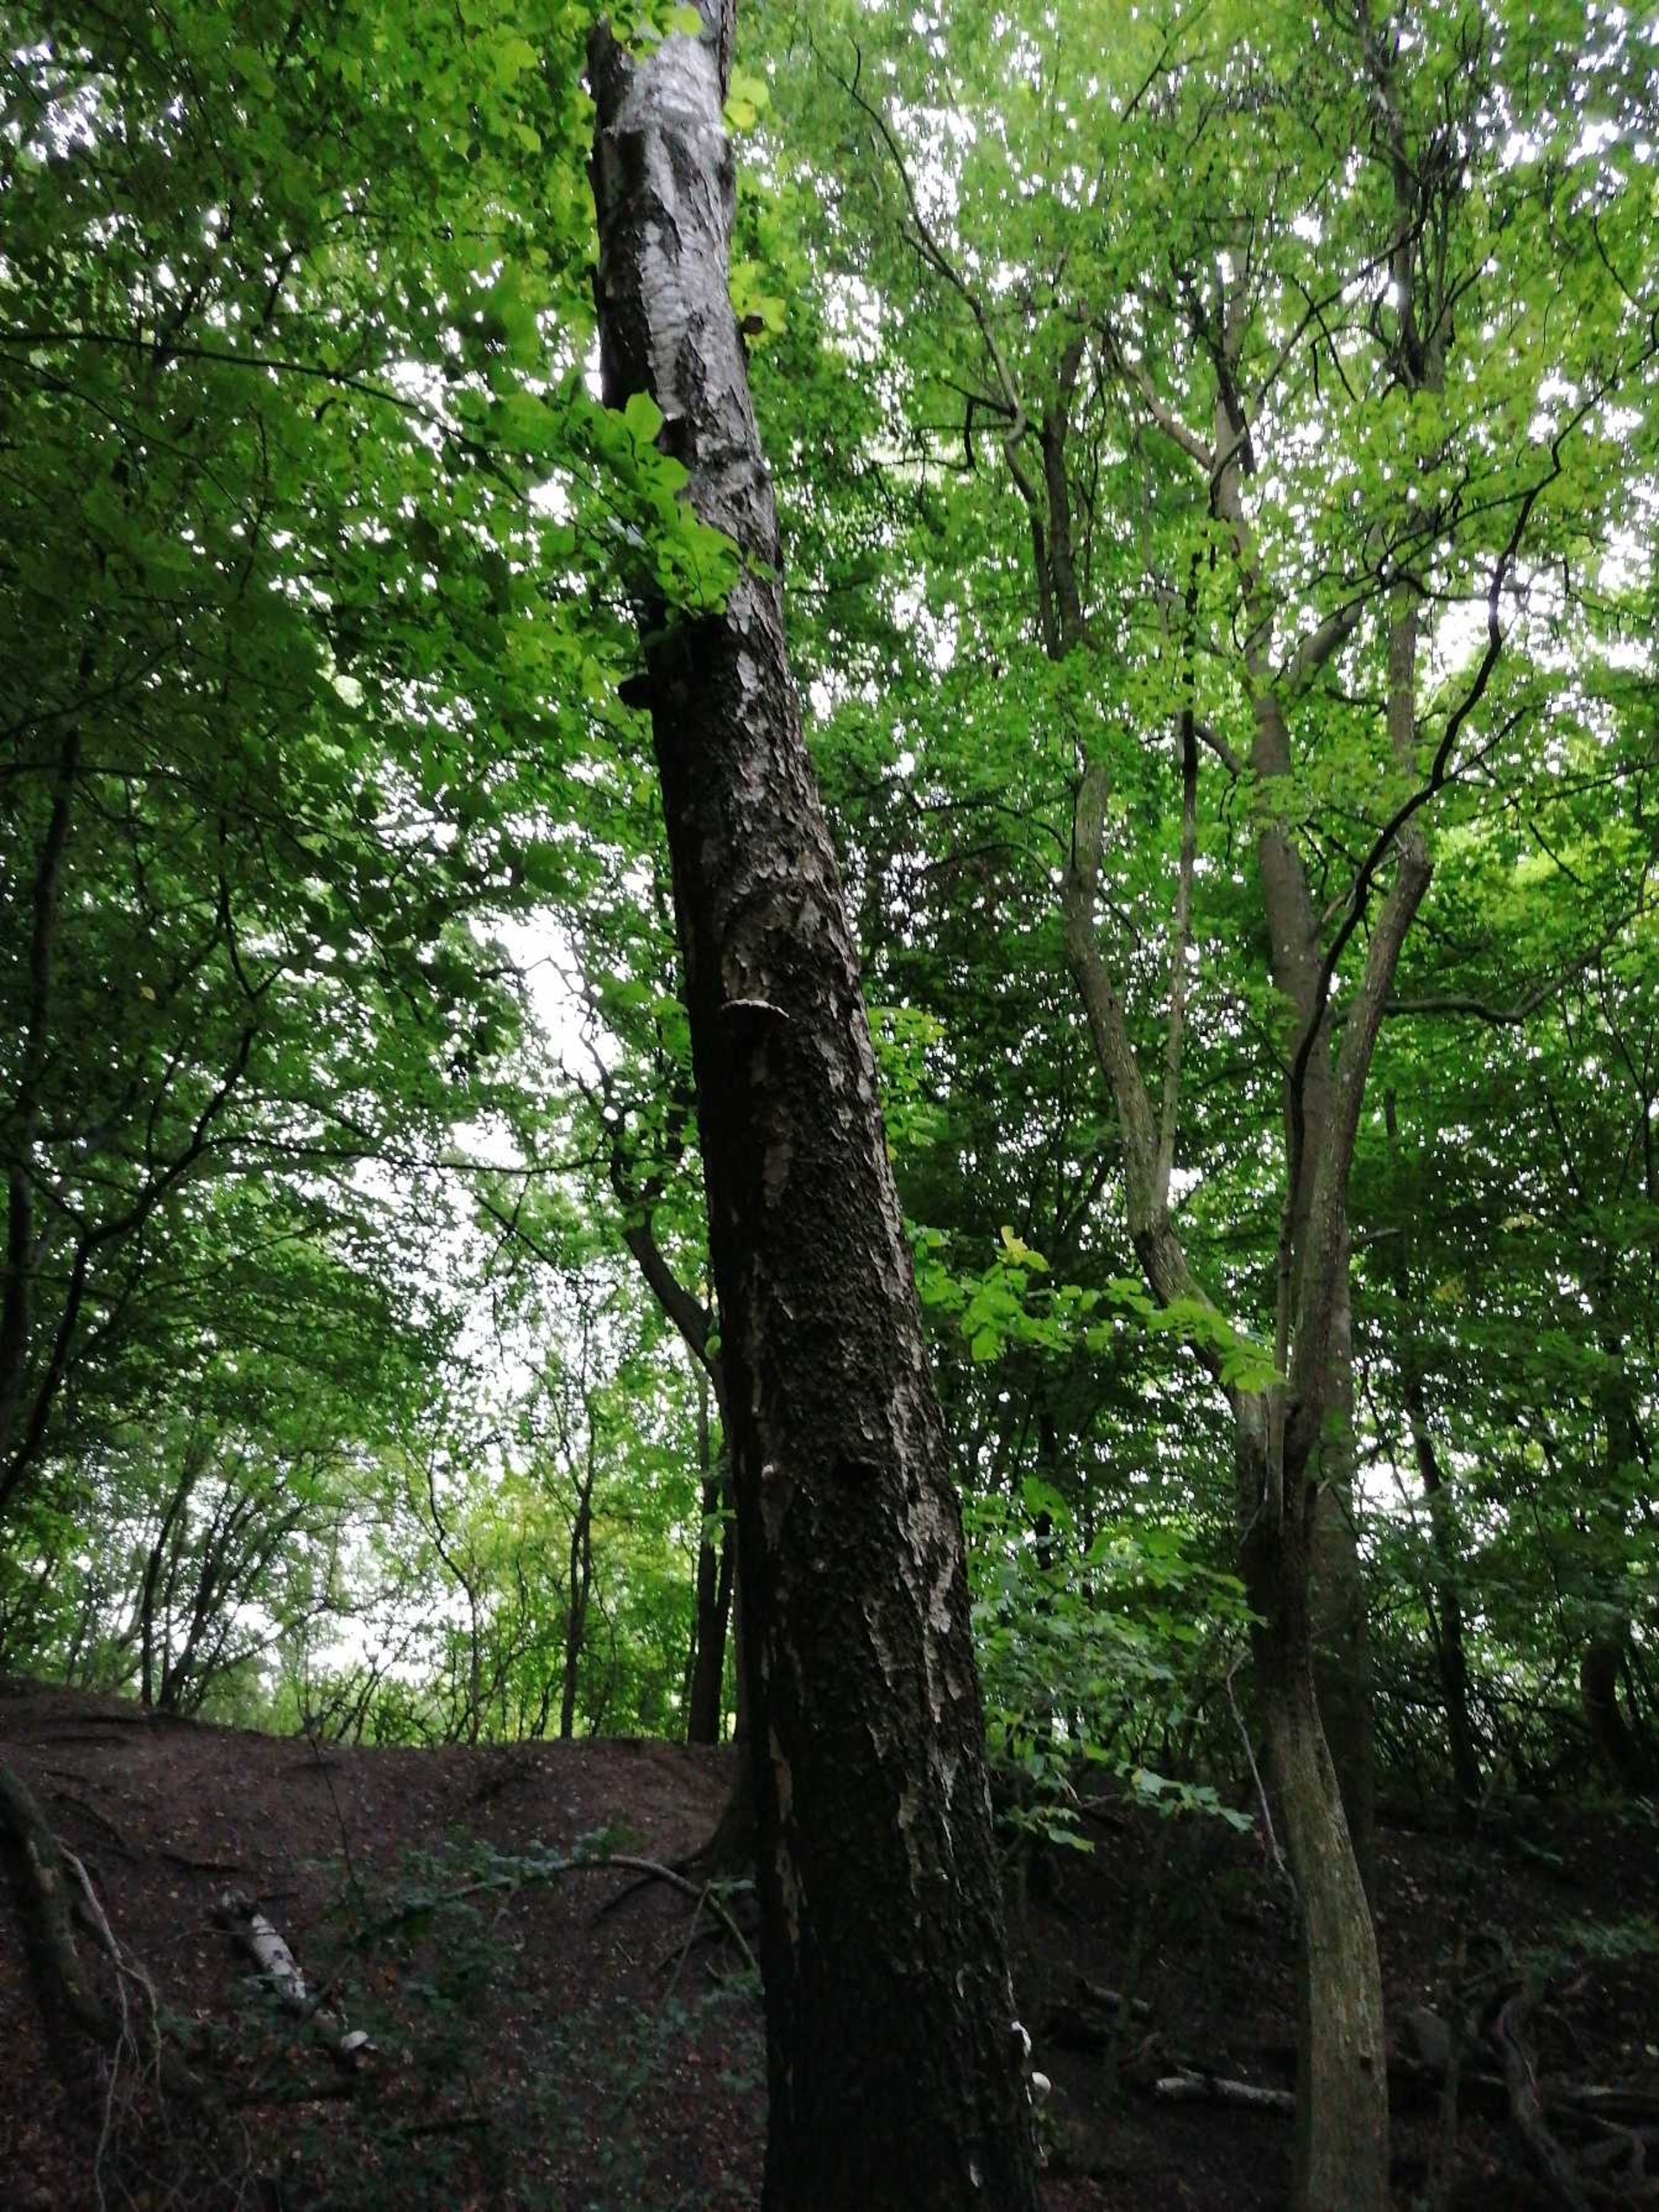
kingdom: Fungi
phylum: Basidiomycota
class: Agaricomycetes
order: Polyporales
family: Fomitopsidaceae
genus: Fomitopsis
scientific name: Fomitopsis betulina
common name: Birkeporesvamp
